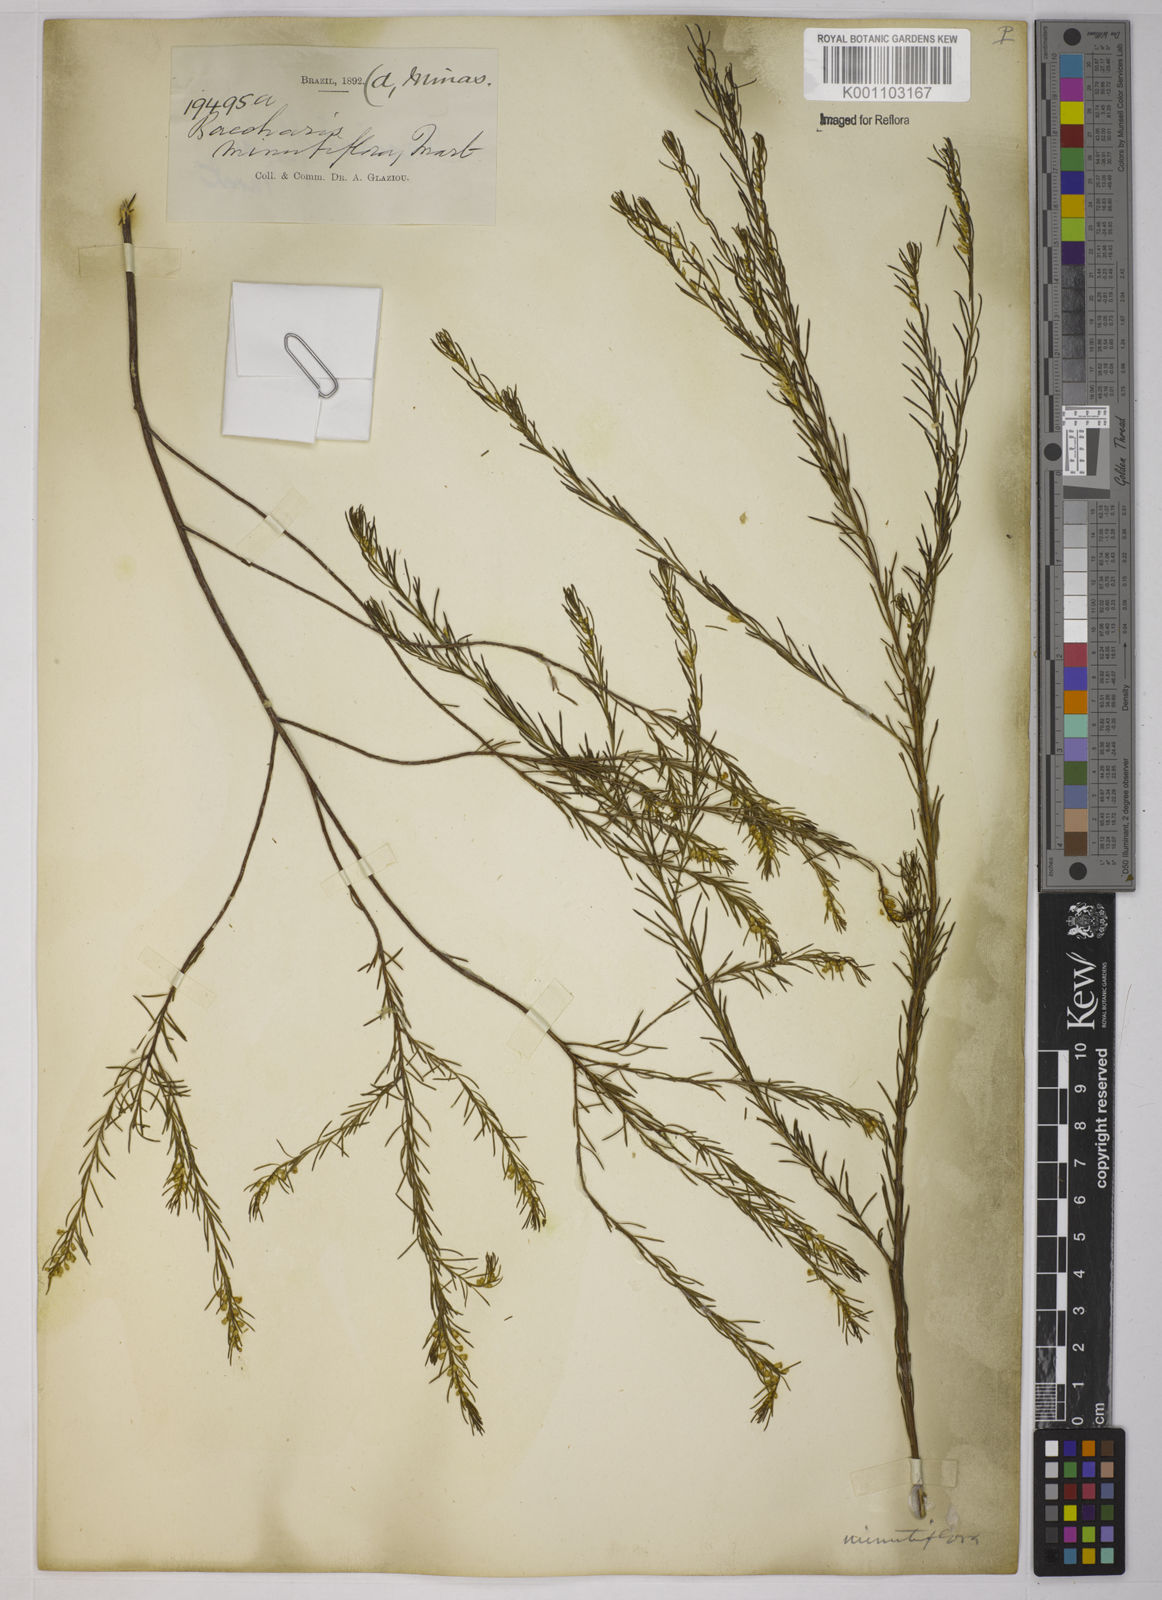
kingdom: Plantae
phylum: Tracheophyta
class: Magnoliopsida
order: Asterales
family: Asteraceae
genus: Baccharis
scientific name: Baccharis minutiflora
